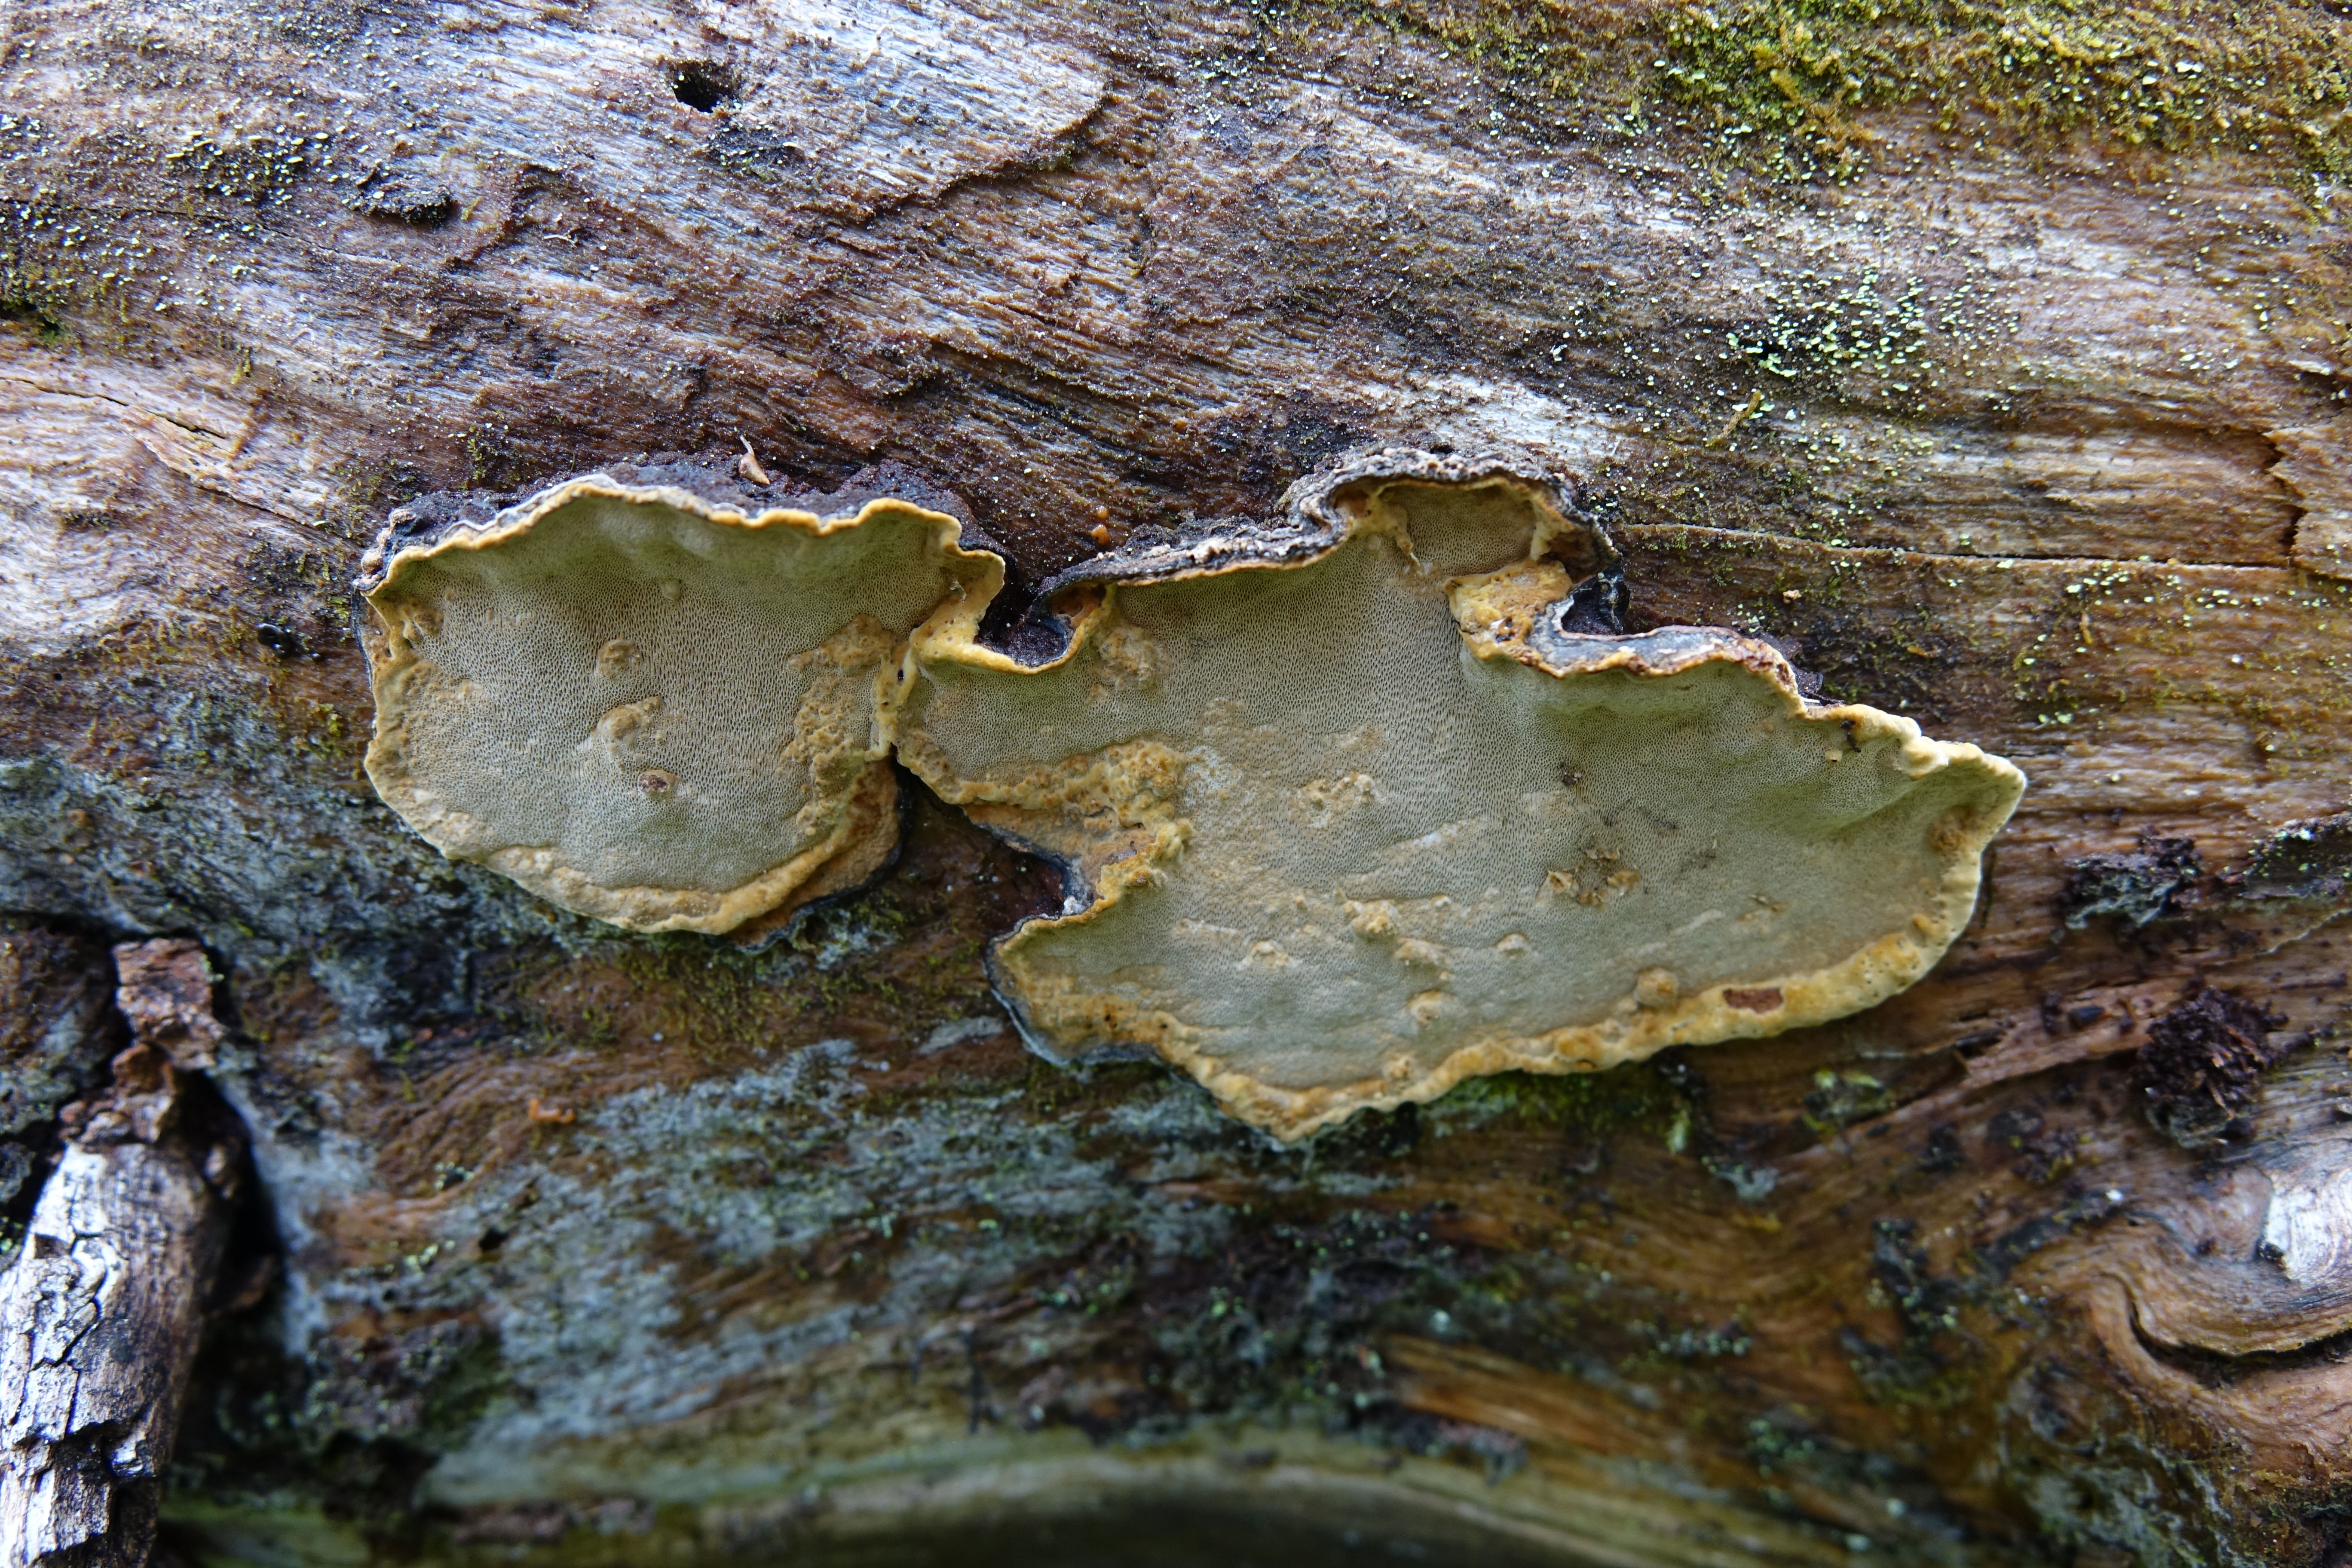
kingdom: Fungi
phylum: Basidiomycota
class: Agaricomycetes
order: Hymenochaetales
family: Hymenochaetaceae
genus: Phellopilus
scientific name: Phellopilus nigrolimitatus
